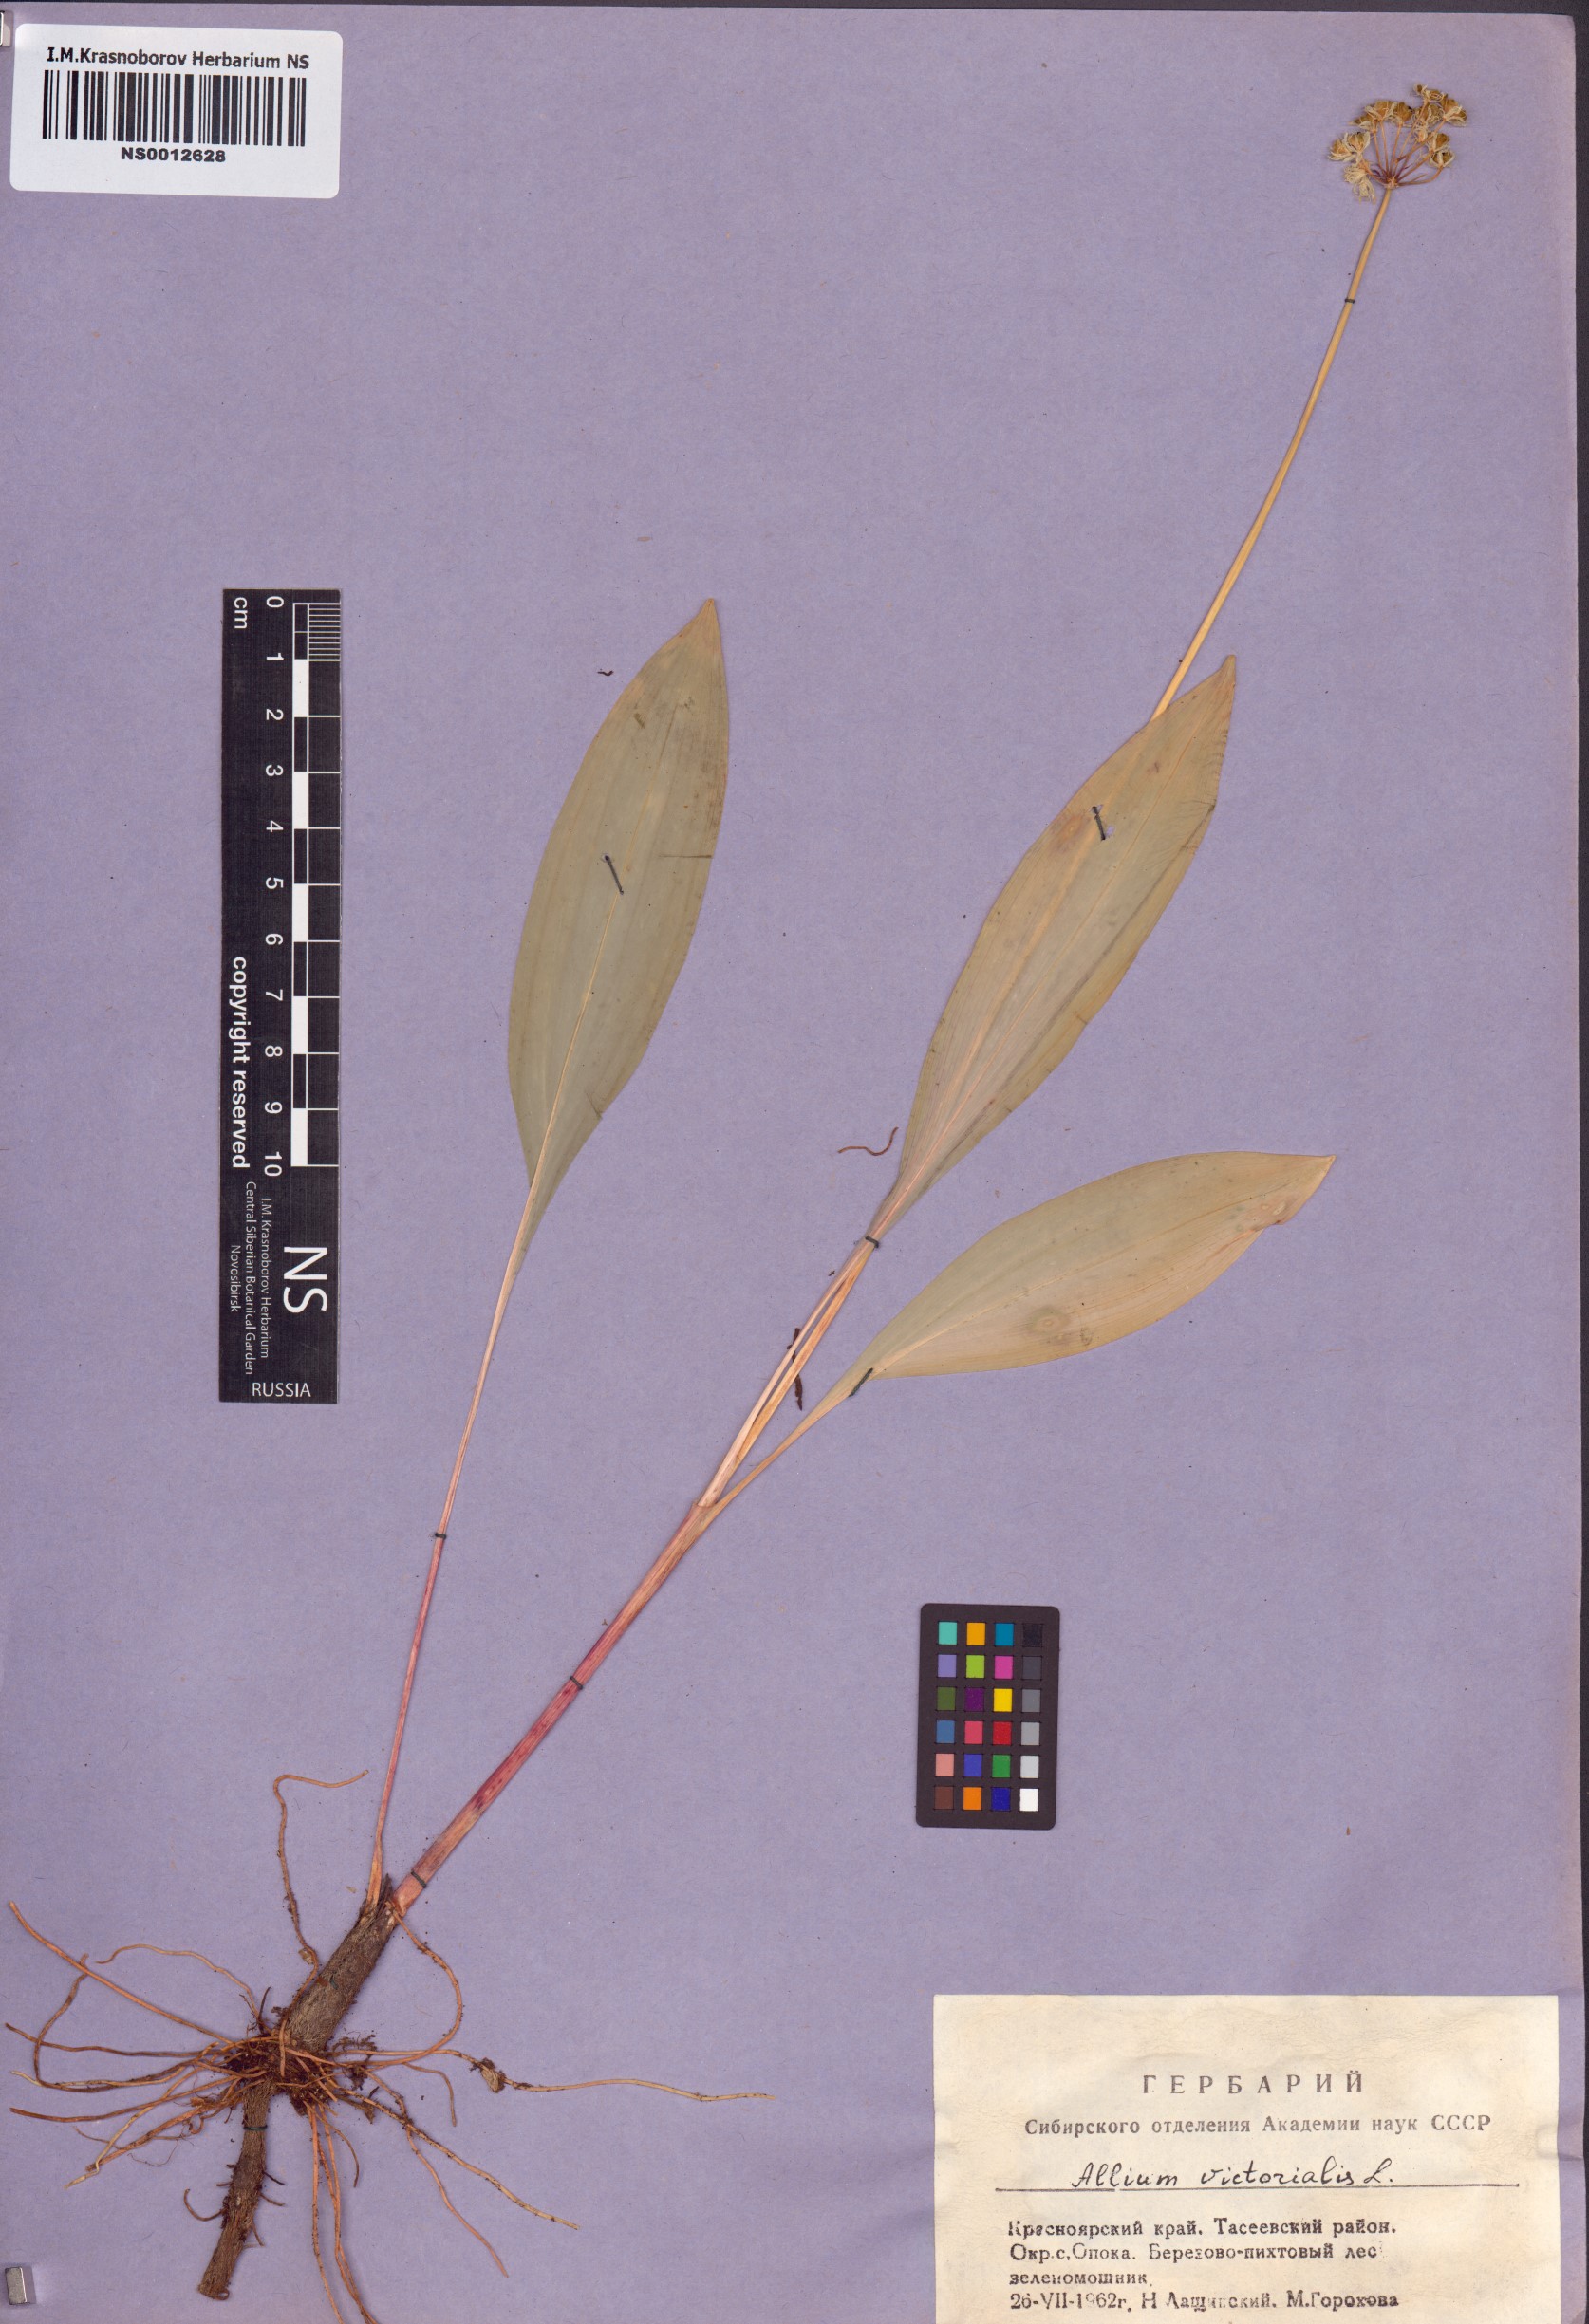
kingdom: Plantae
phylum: Tracheophyta
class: Liliopsida
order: Asparagales
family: Amaryllidaceae
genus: Allium
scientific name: Allium microdictyon
